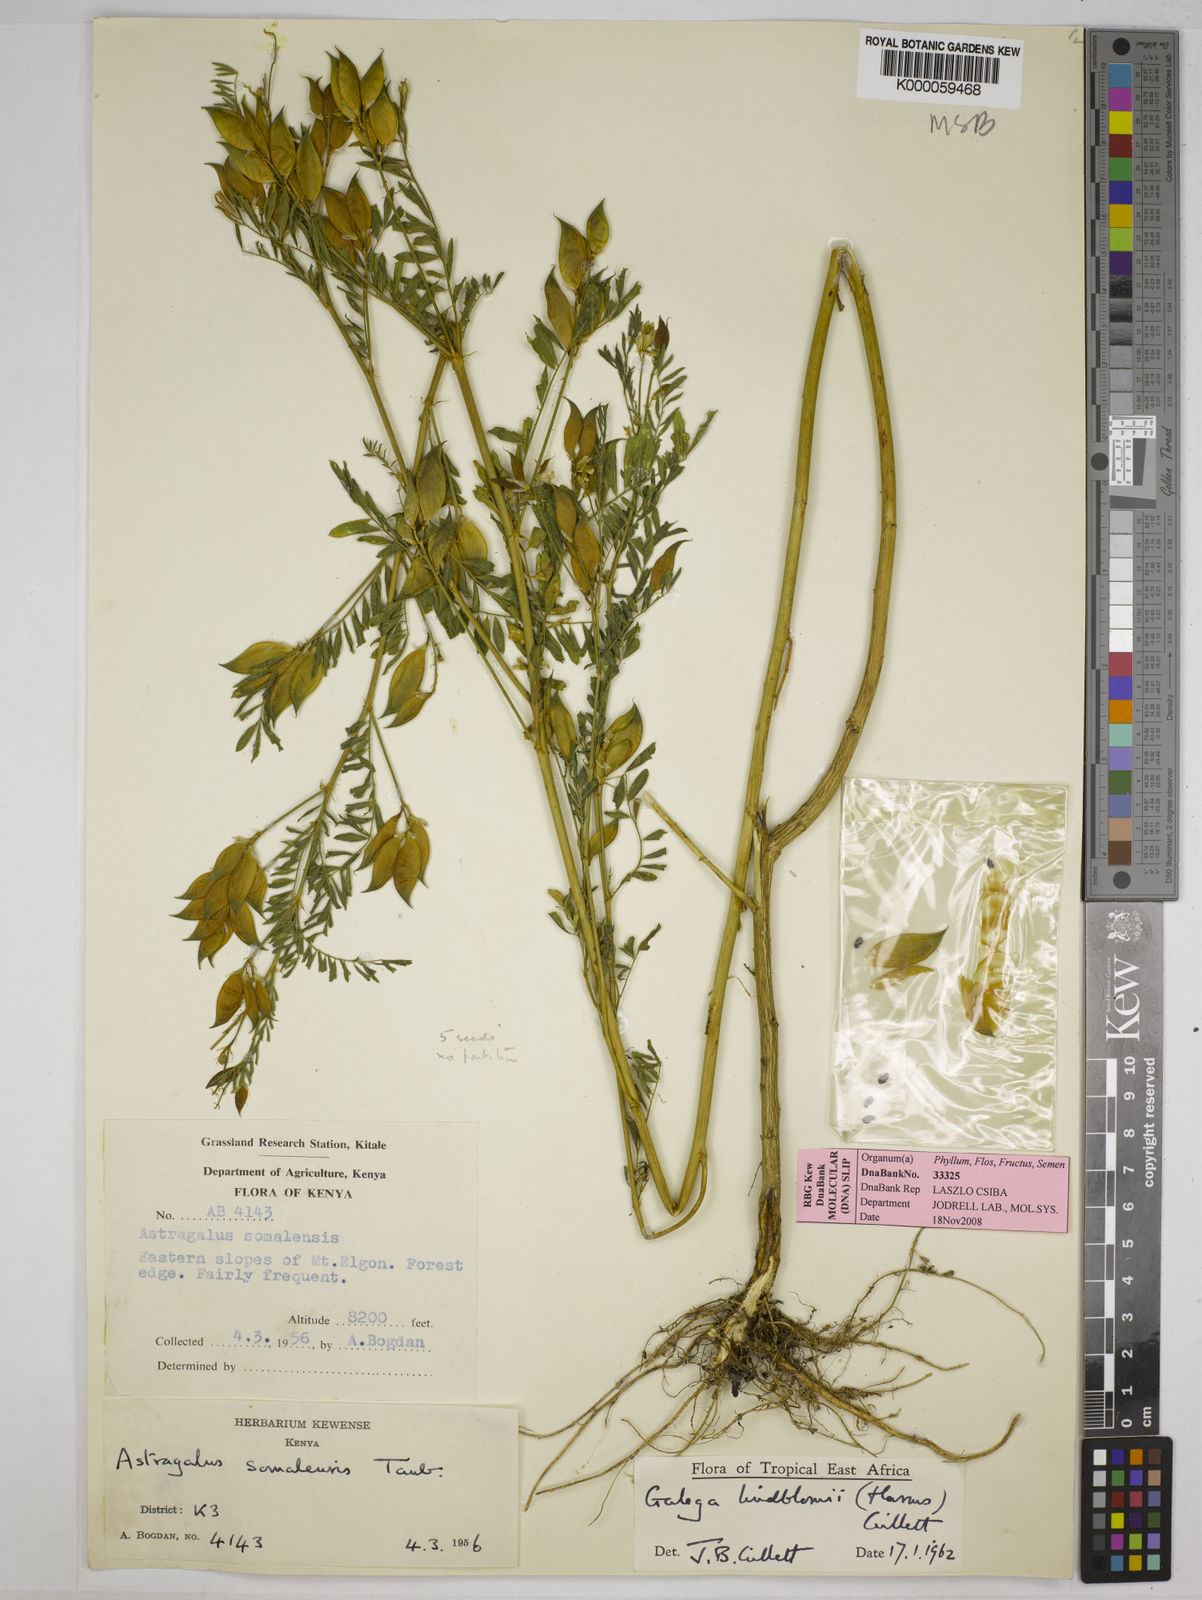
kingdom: Plantae
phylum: Tracheophyta
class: Magnoliopsida
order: Fabales
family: Fabaceae
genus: Galega
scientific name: Galega lindblomii
